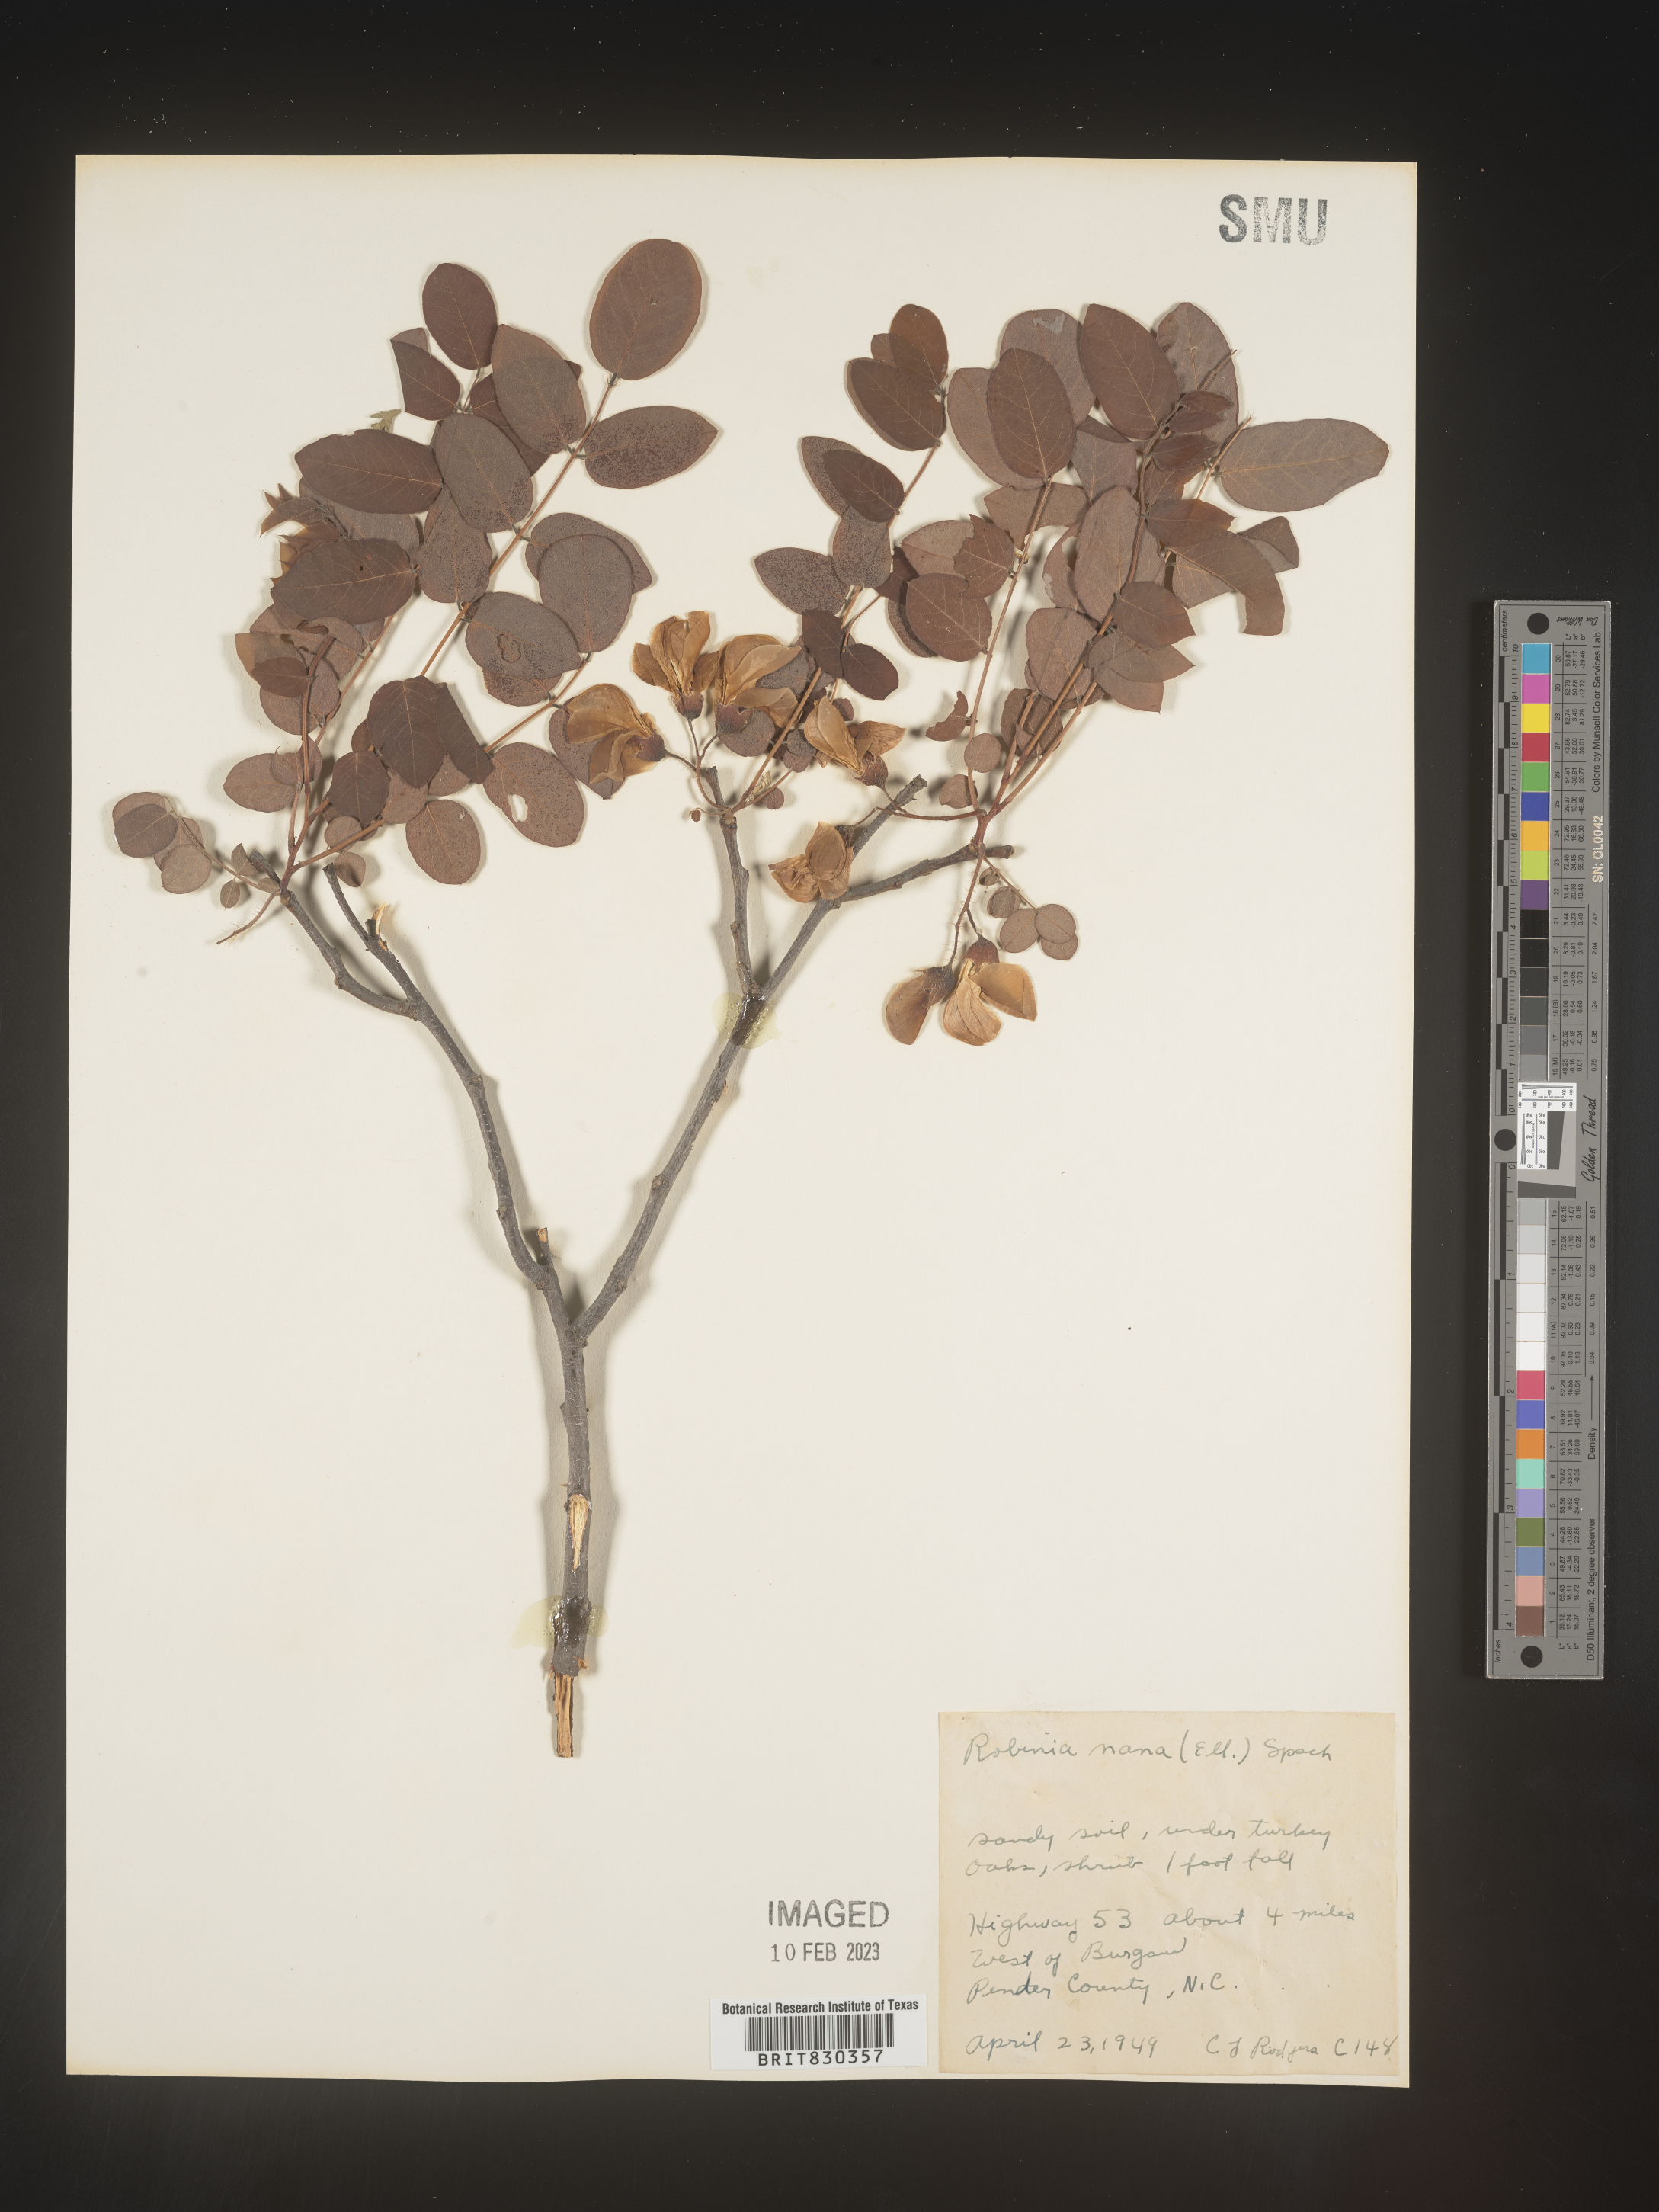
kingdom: Plantae
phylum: Tracheophyta
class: Magnoliopsida
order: Fabales
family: Fabaceae
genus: Robinia
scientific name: Robinia
